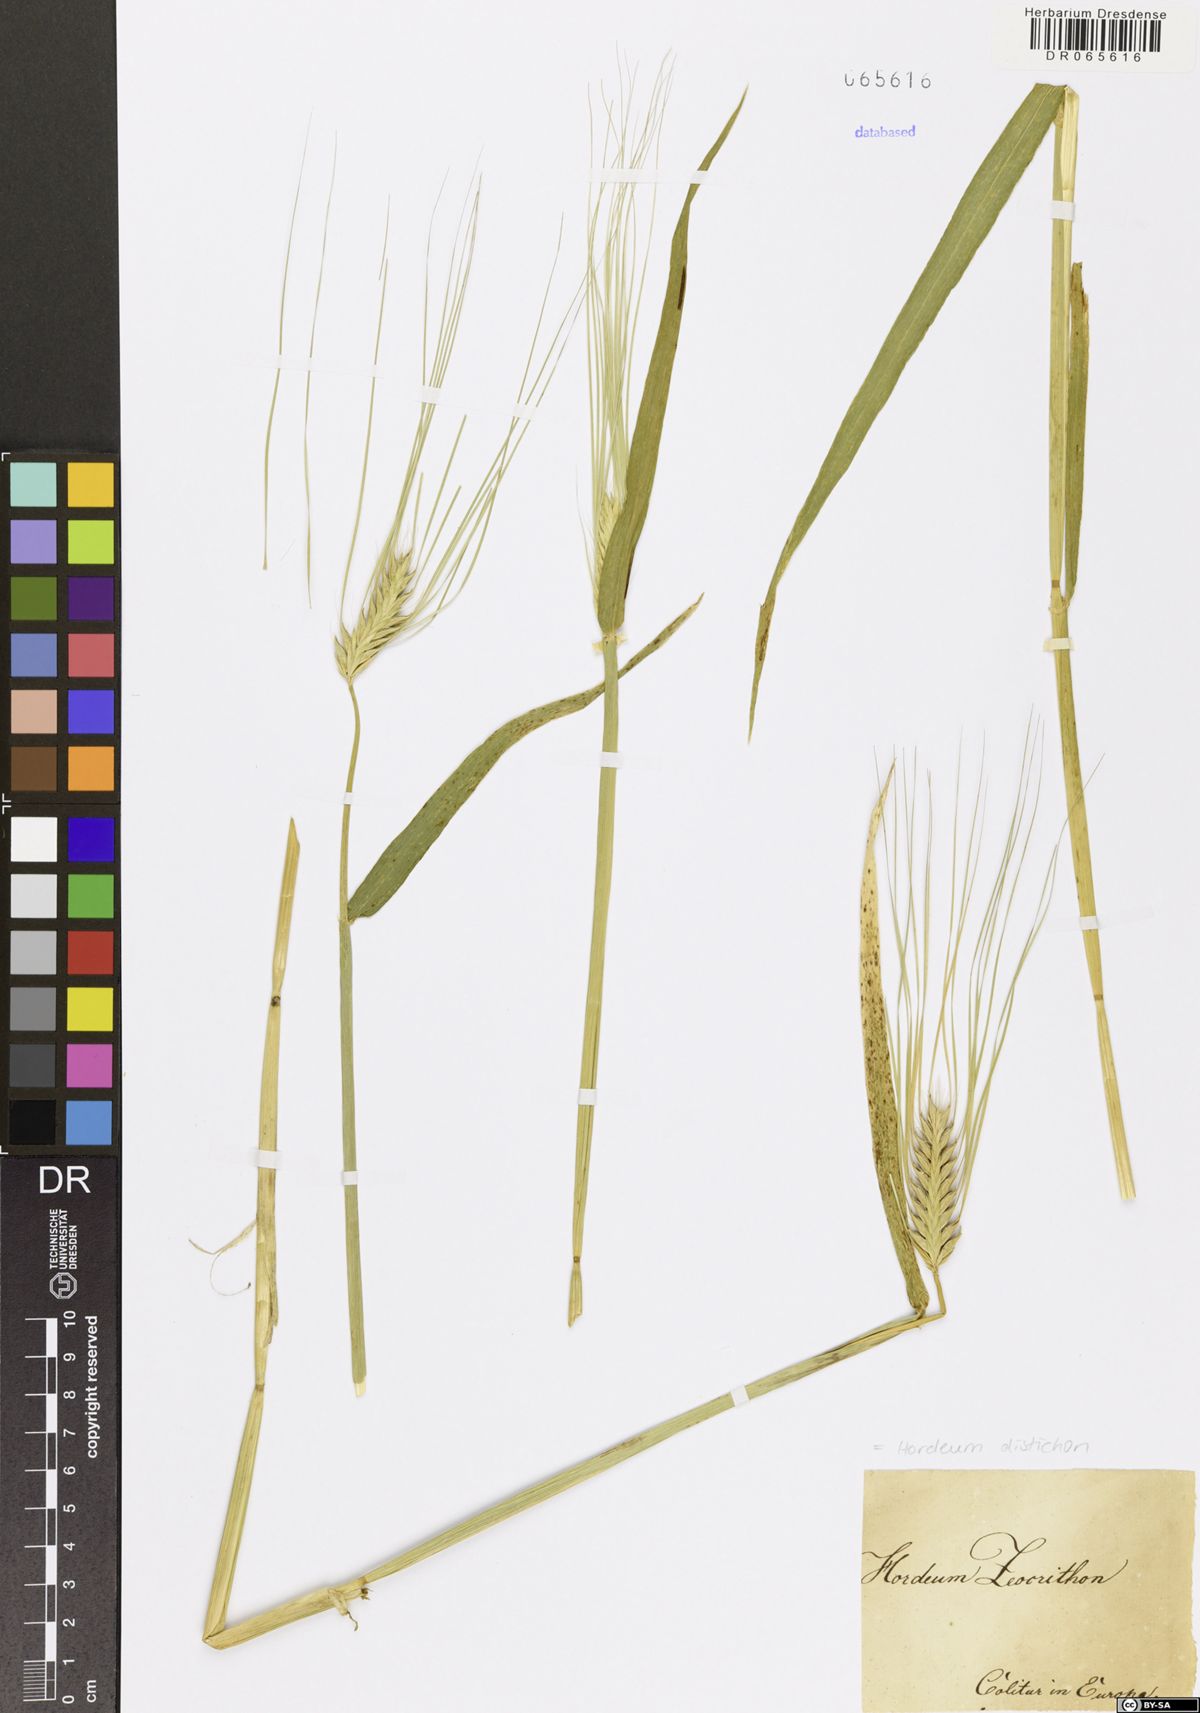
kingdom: Plantae
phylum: Tracheophyta
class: Liliopsida
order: Poales
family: Poaceae
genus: Hordeum
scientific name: Hordeum distichon
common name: Two-rowed barley
